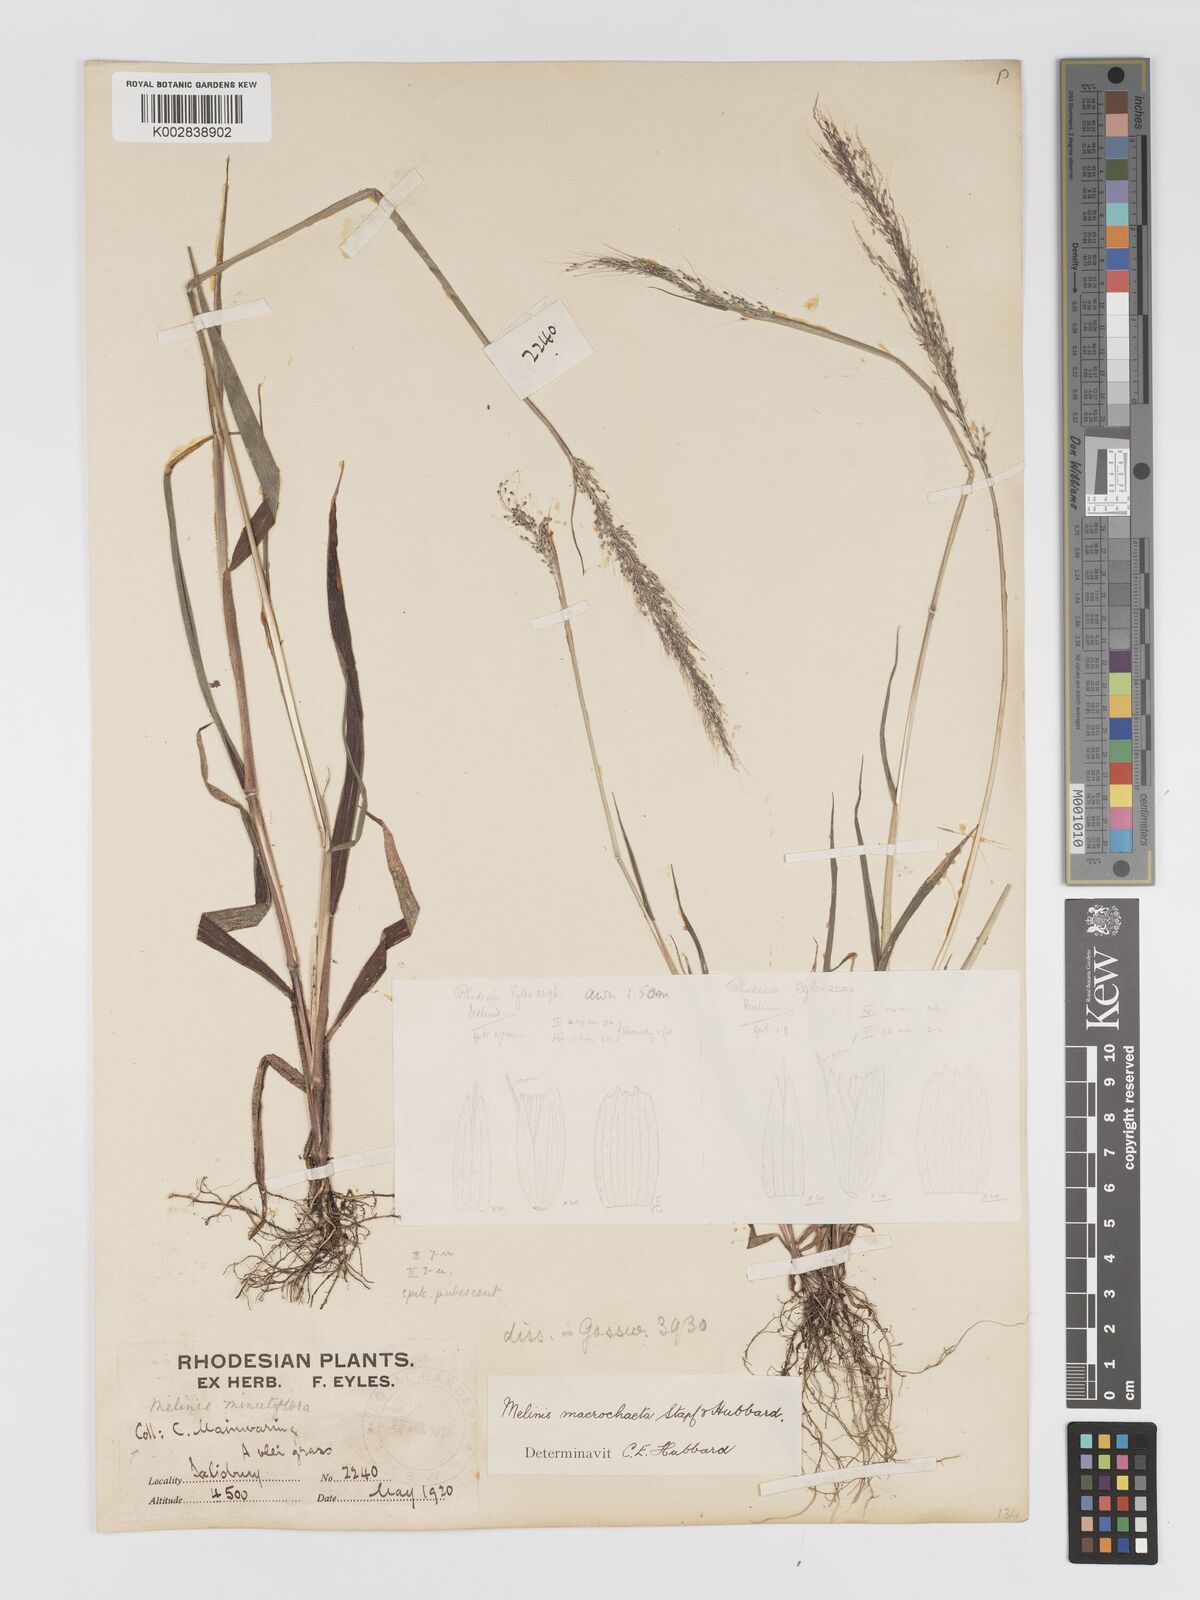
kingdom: Plantae
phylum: Tracheophyta
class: Liliopsida
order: Poales
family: Poaceae
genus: Melinis
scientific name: Melinis macrochaeta
